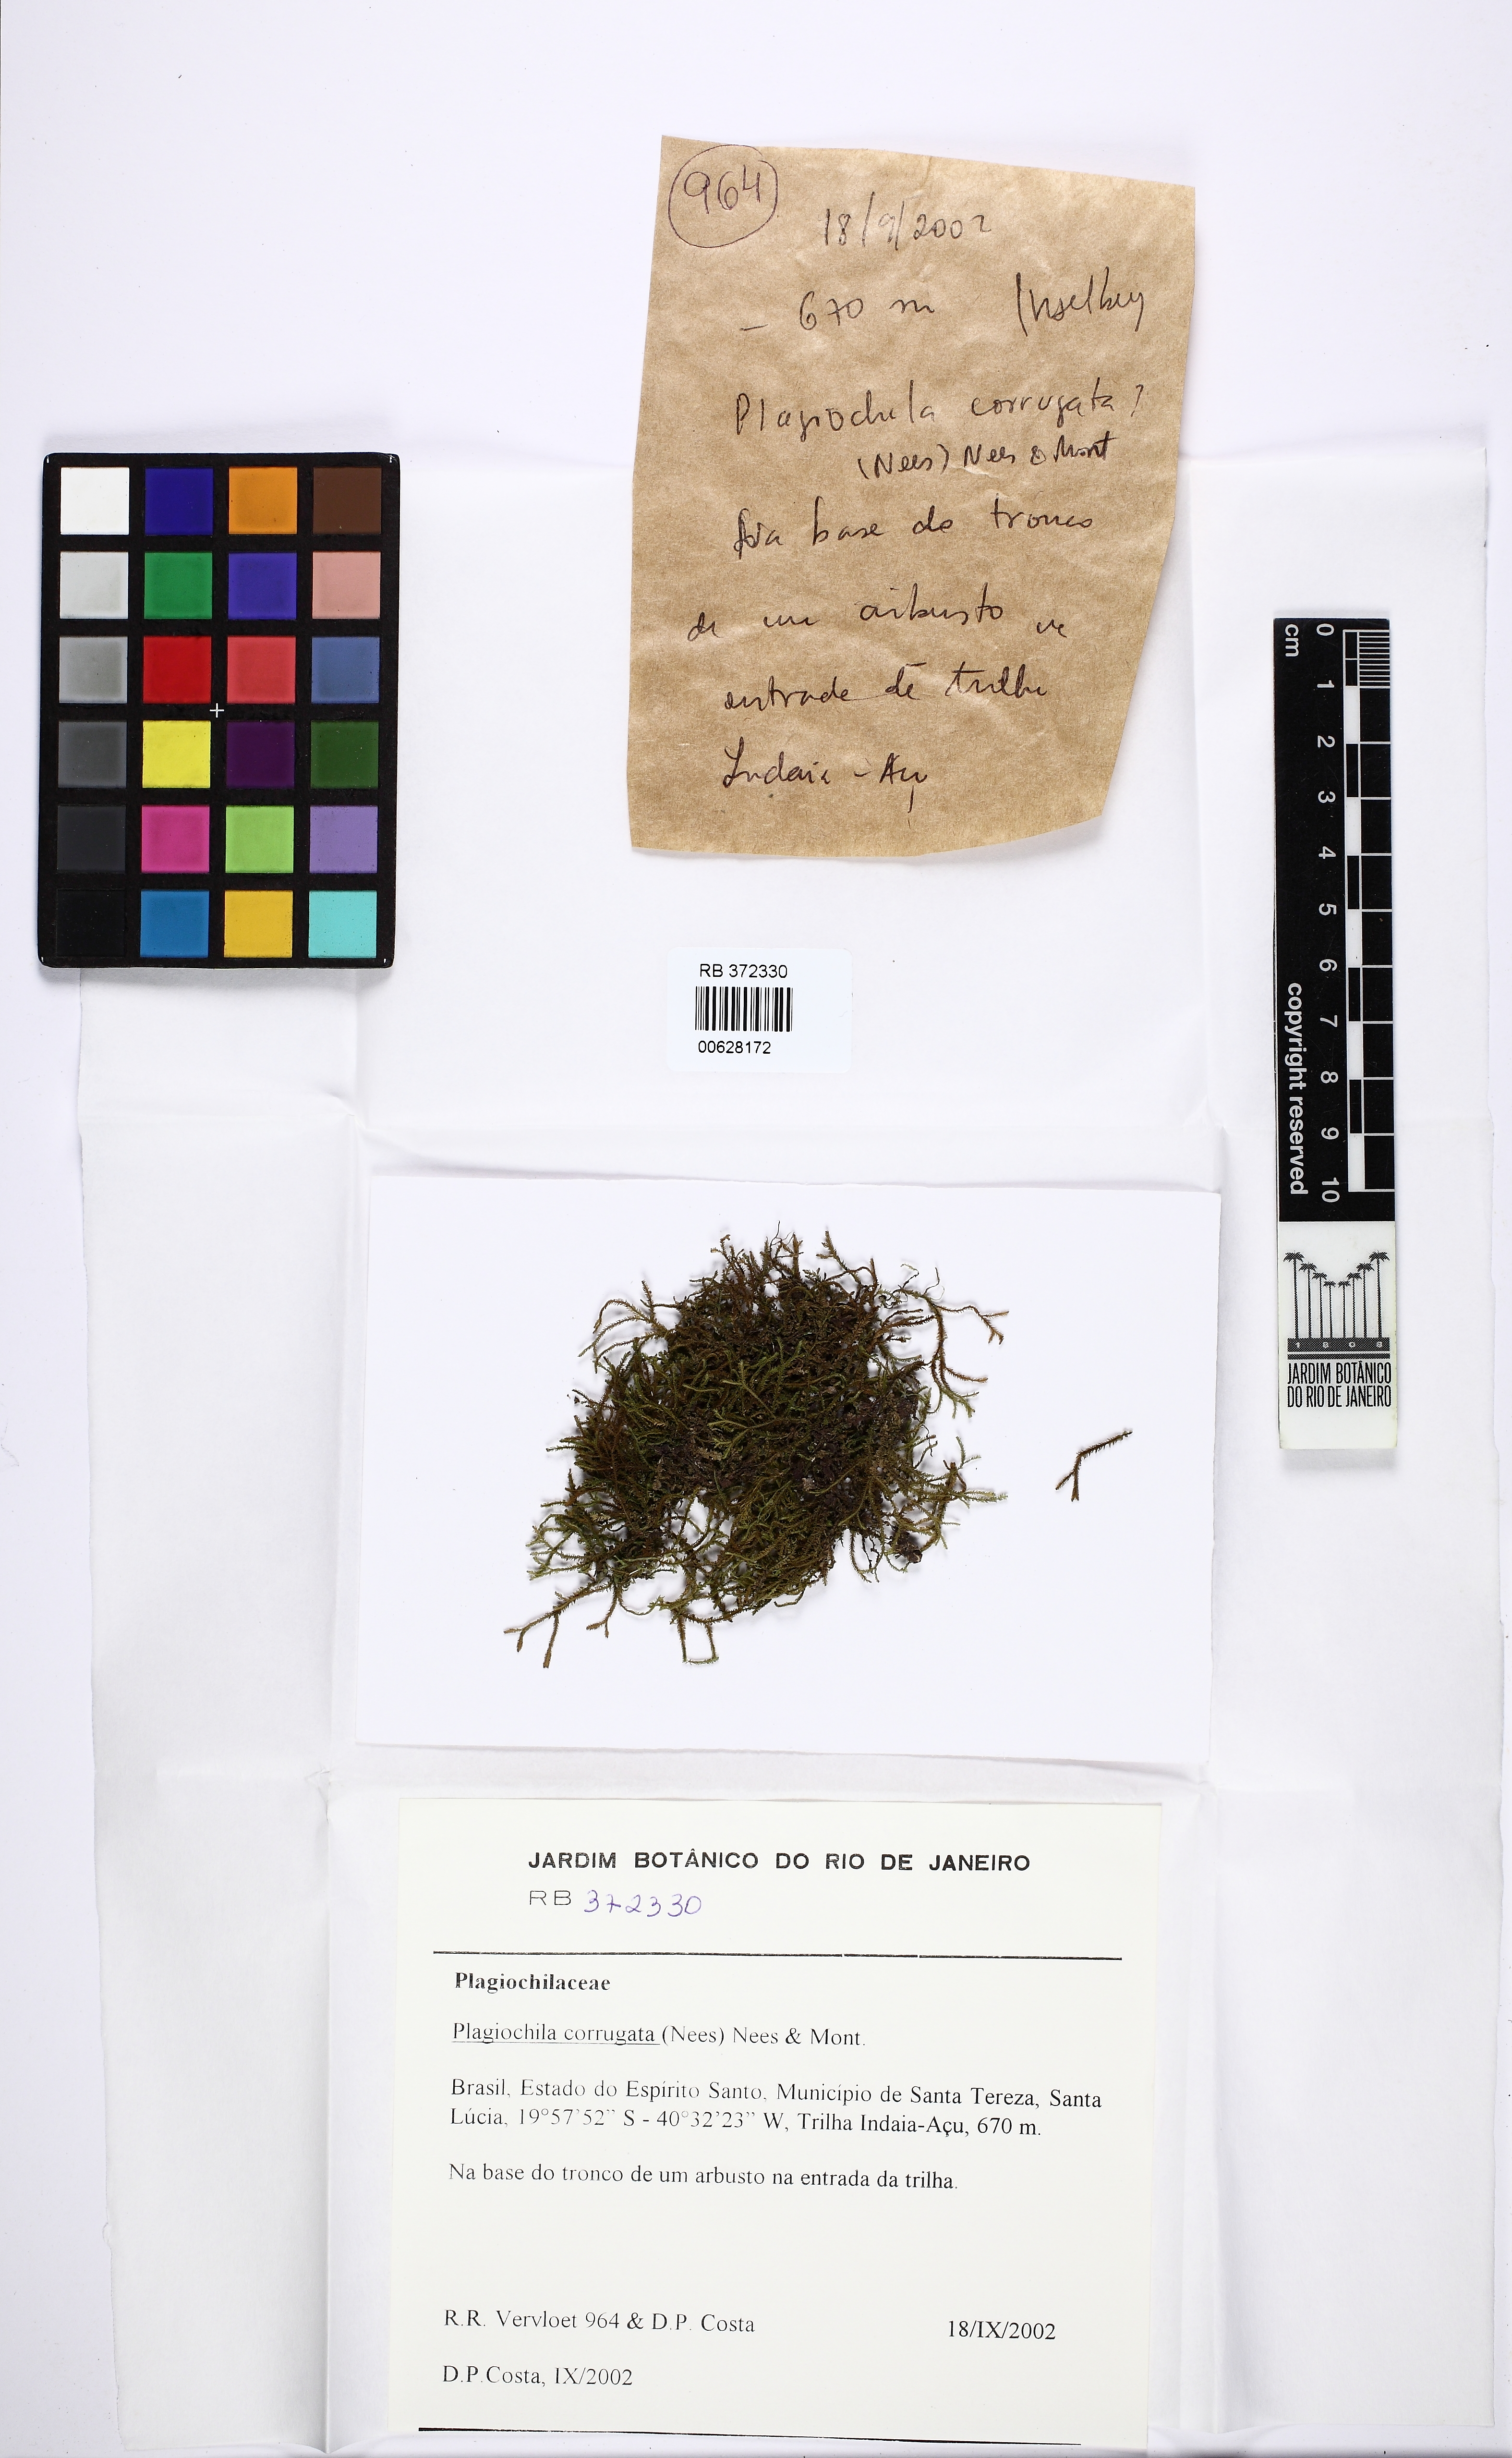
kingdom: Plantae
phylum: Marchantiophyta
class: Jungermanniopsida
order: Jungermanniales
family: Plagiochilaceae
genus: Plagiochila
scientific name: Plagiochila corrugata
